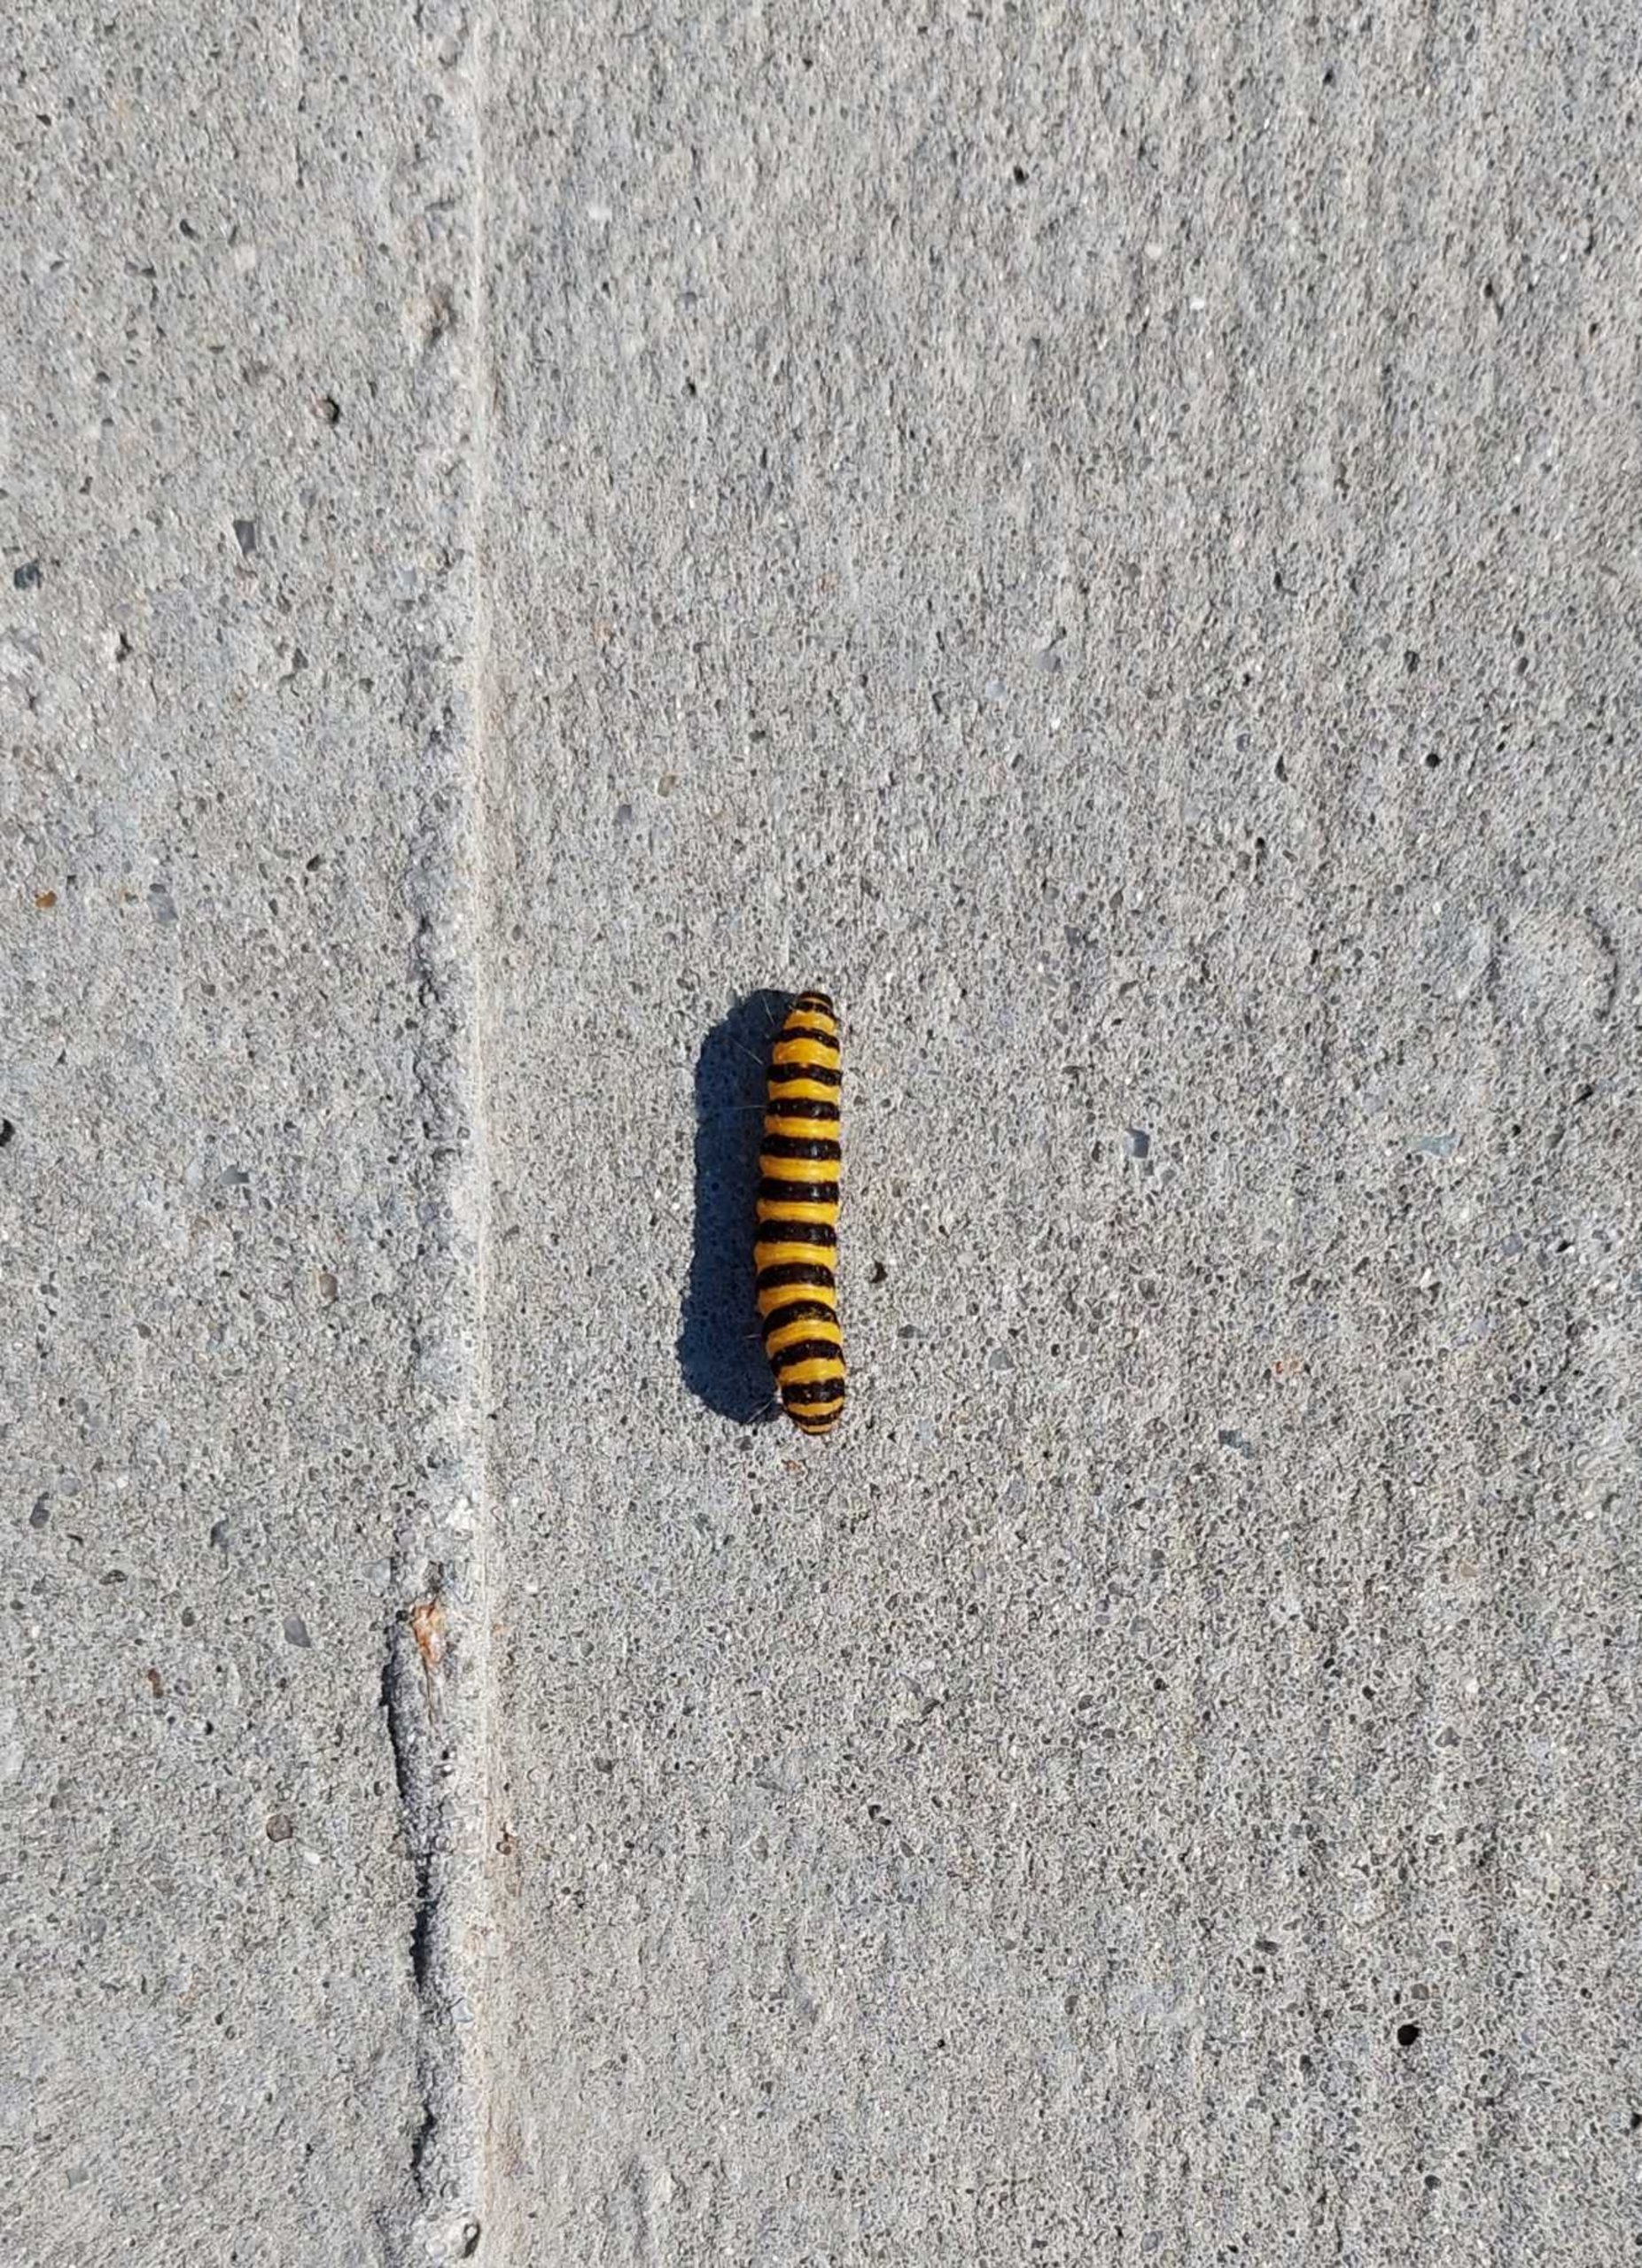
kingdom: Animalia
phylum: Arthropoda
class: Insecta
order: Lepidoptera
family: Erebidae
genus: Tyria
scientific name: Tyria jacobaeae
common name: Blodplet
